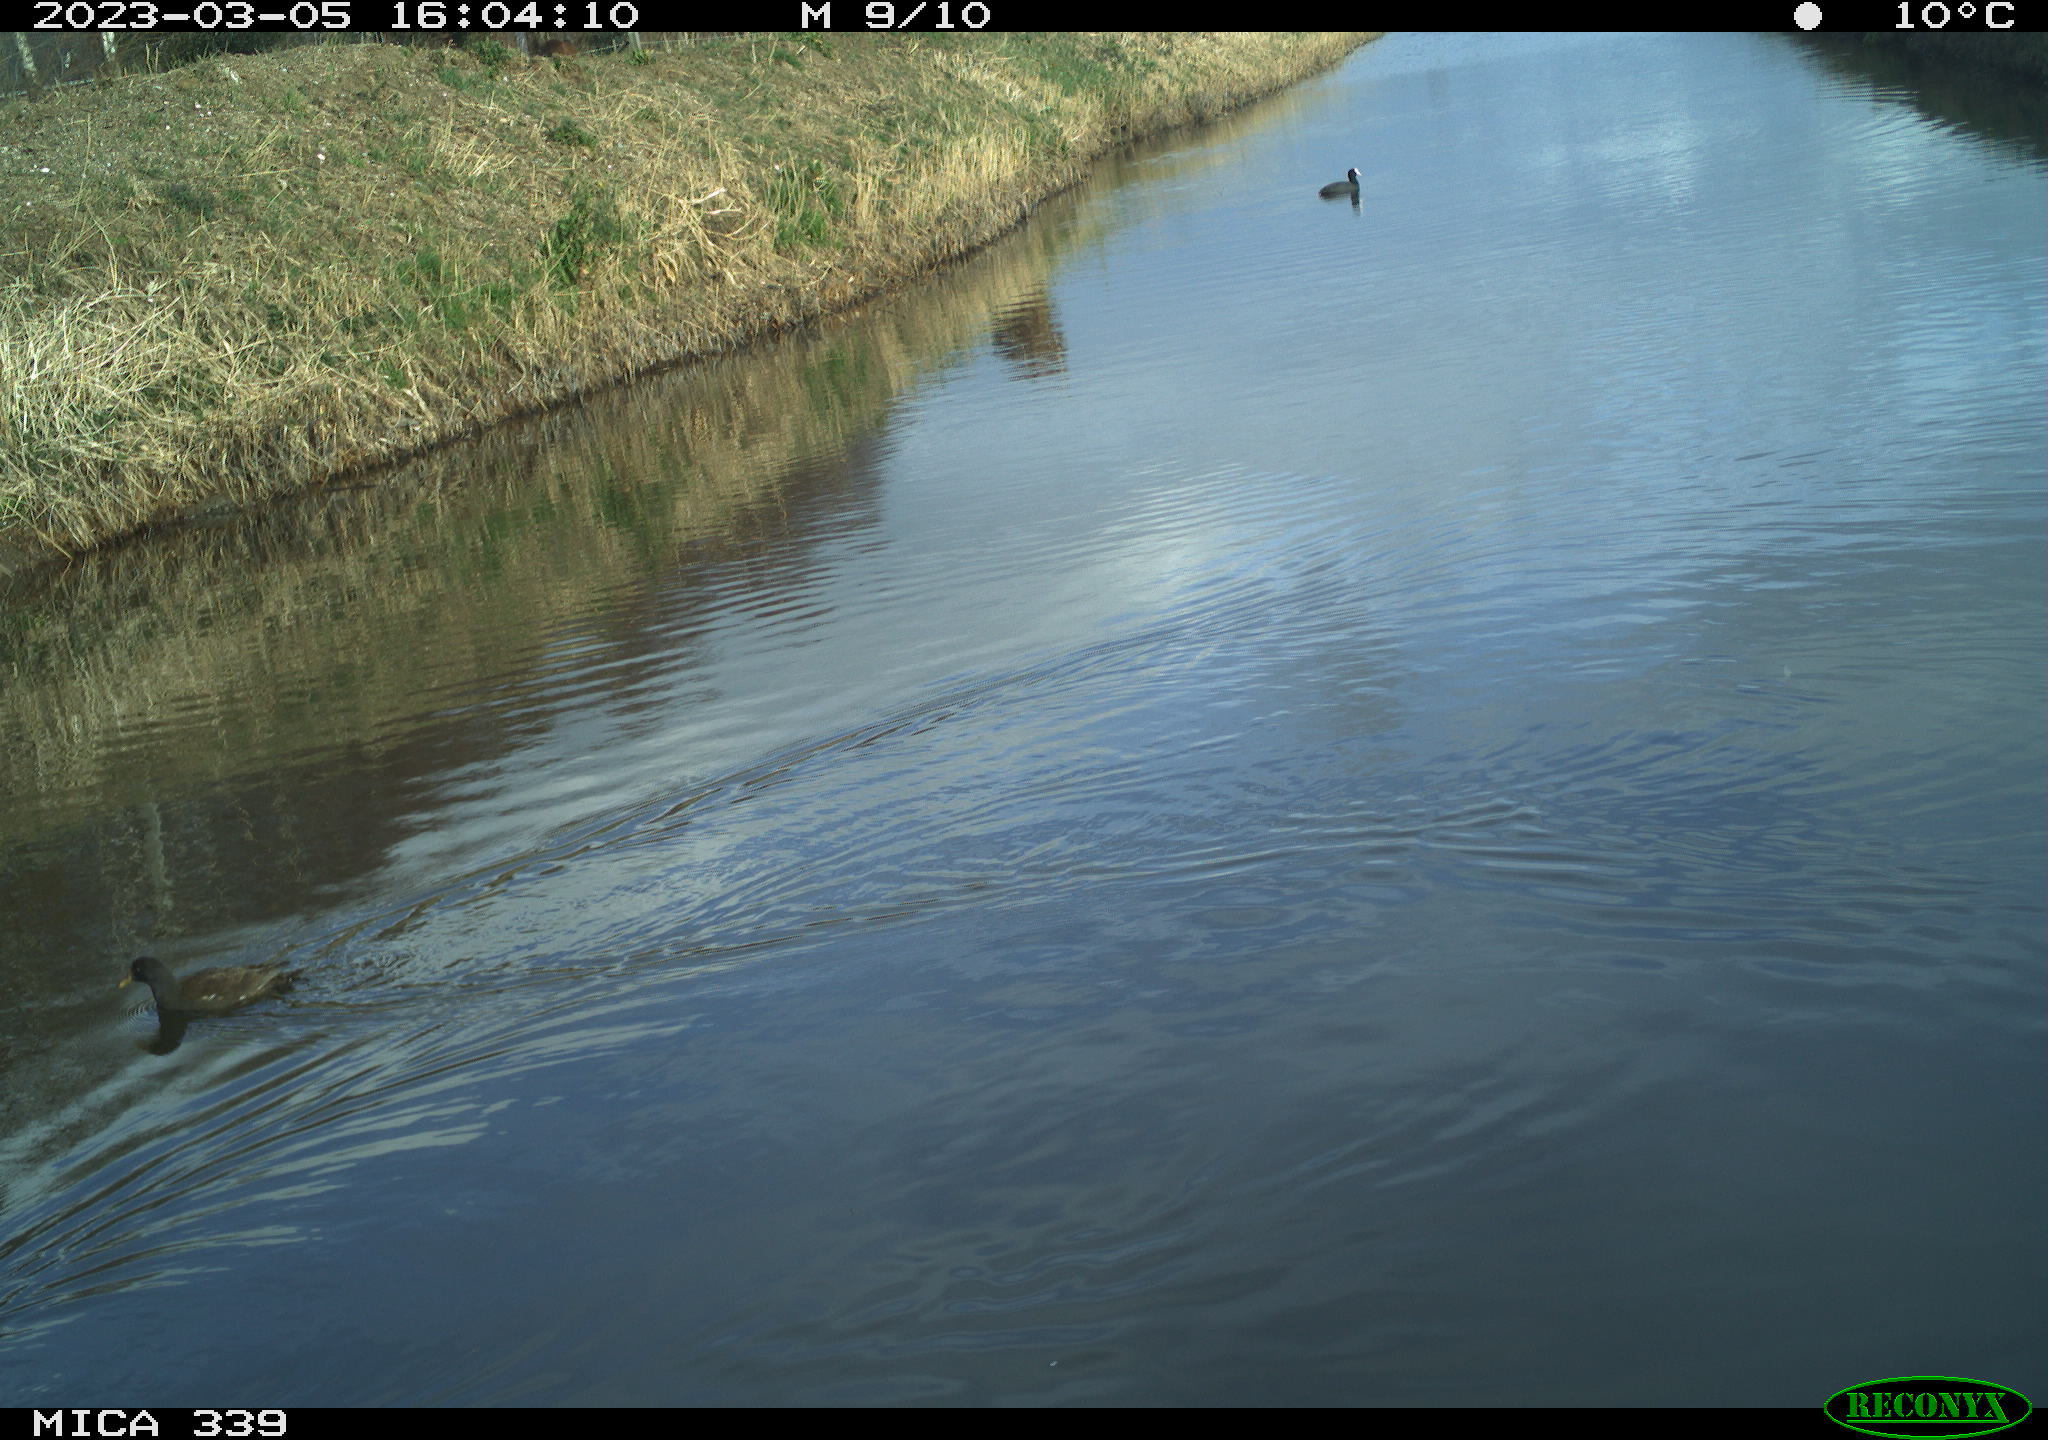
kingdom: Animalia
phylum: Chordata
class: Aves
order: Gruiformes
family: Rallidae
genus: Gallinula
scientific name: Gallinula chloropus
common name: Common moorhen
